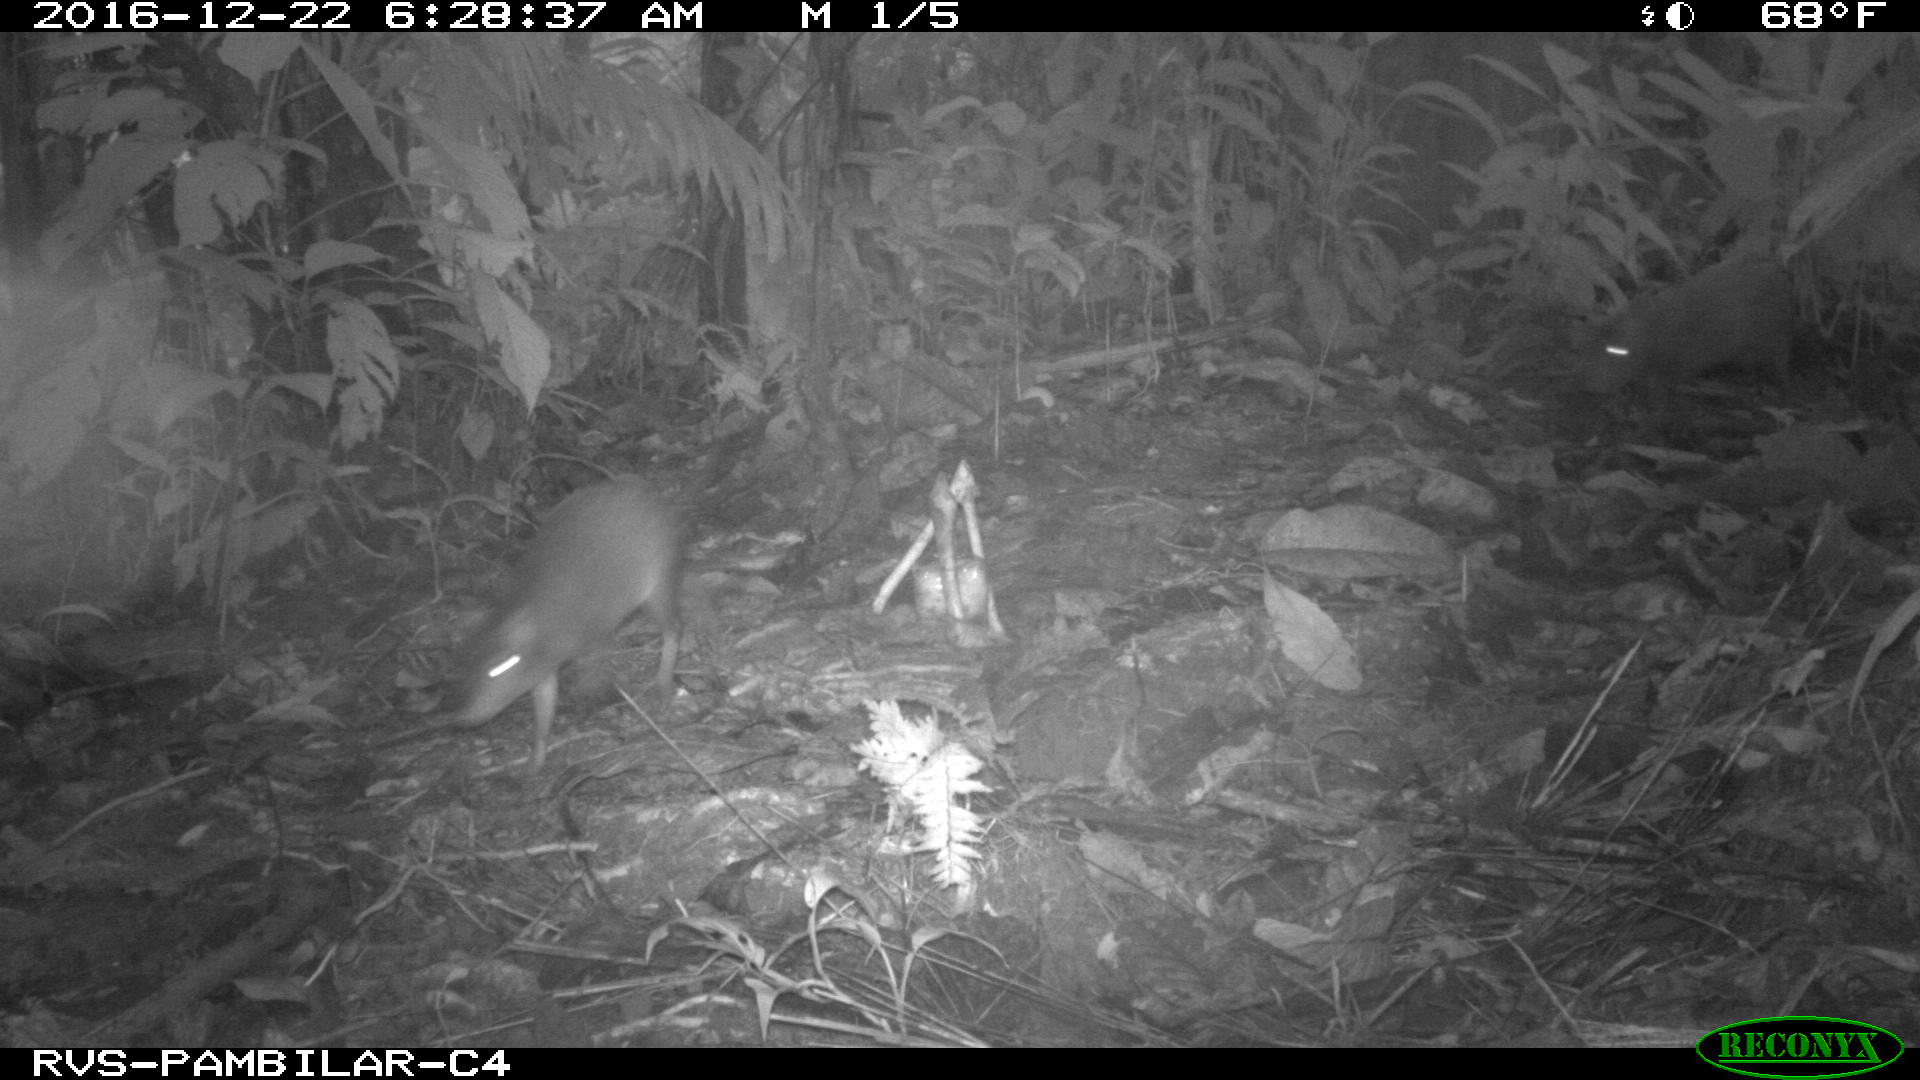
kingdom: Animalia
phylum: Chordata
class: Mammalia
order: Rodentia
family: Dasyproctidae
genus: Dasyprocta
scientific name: Dasyprocta punctata
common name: Central american agouti
